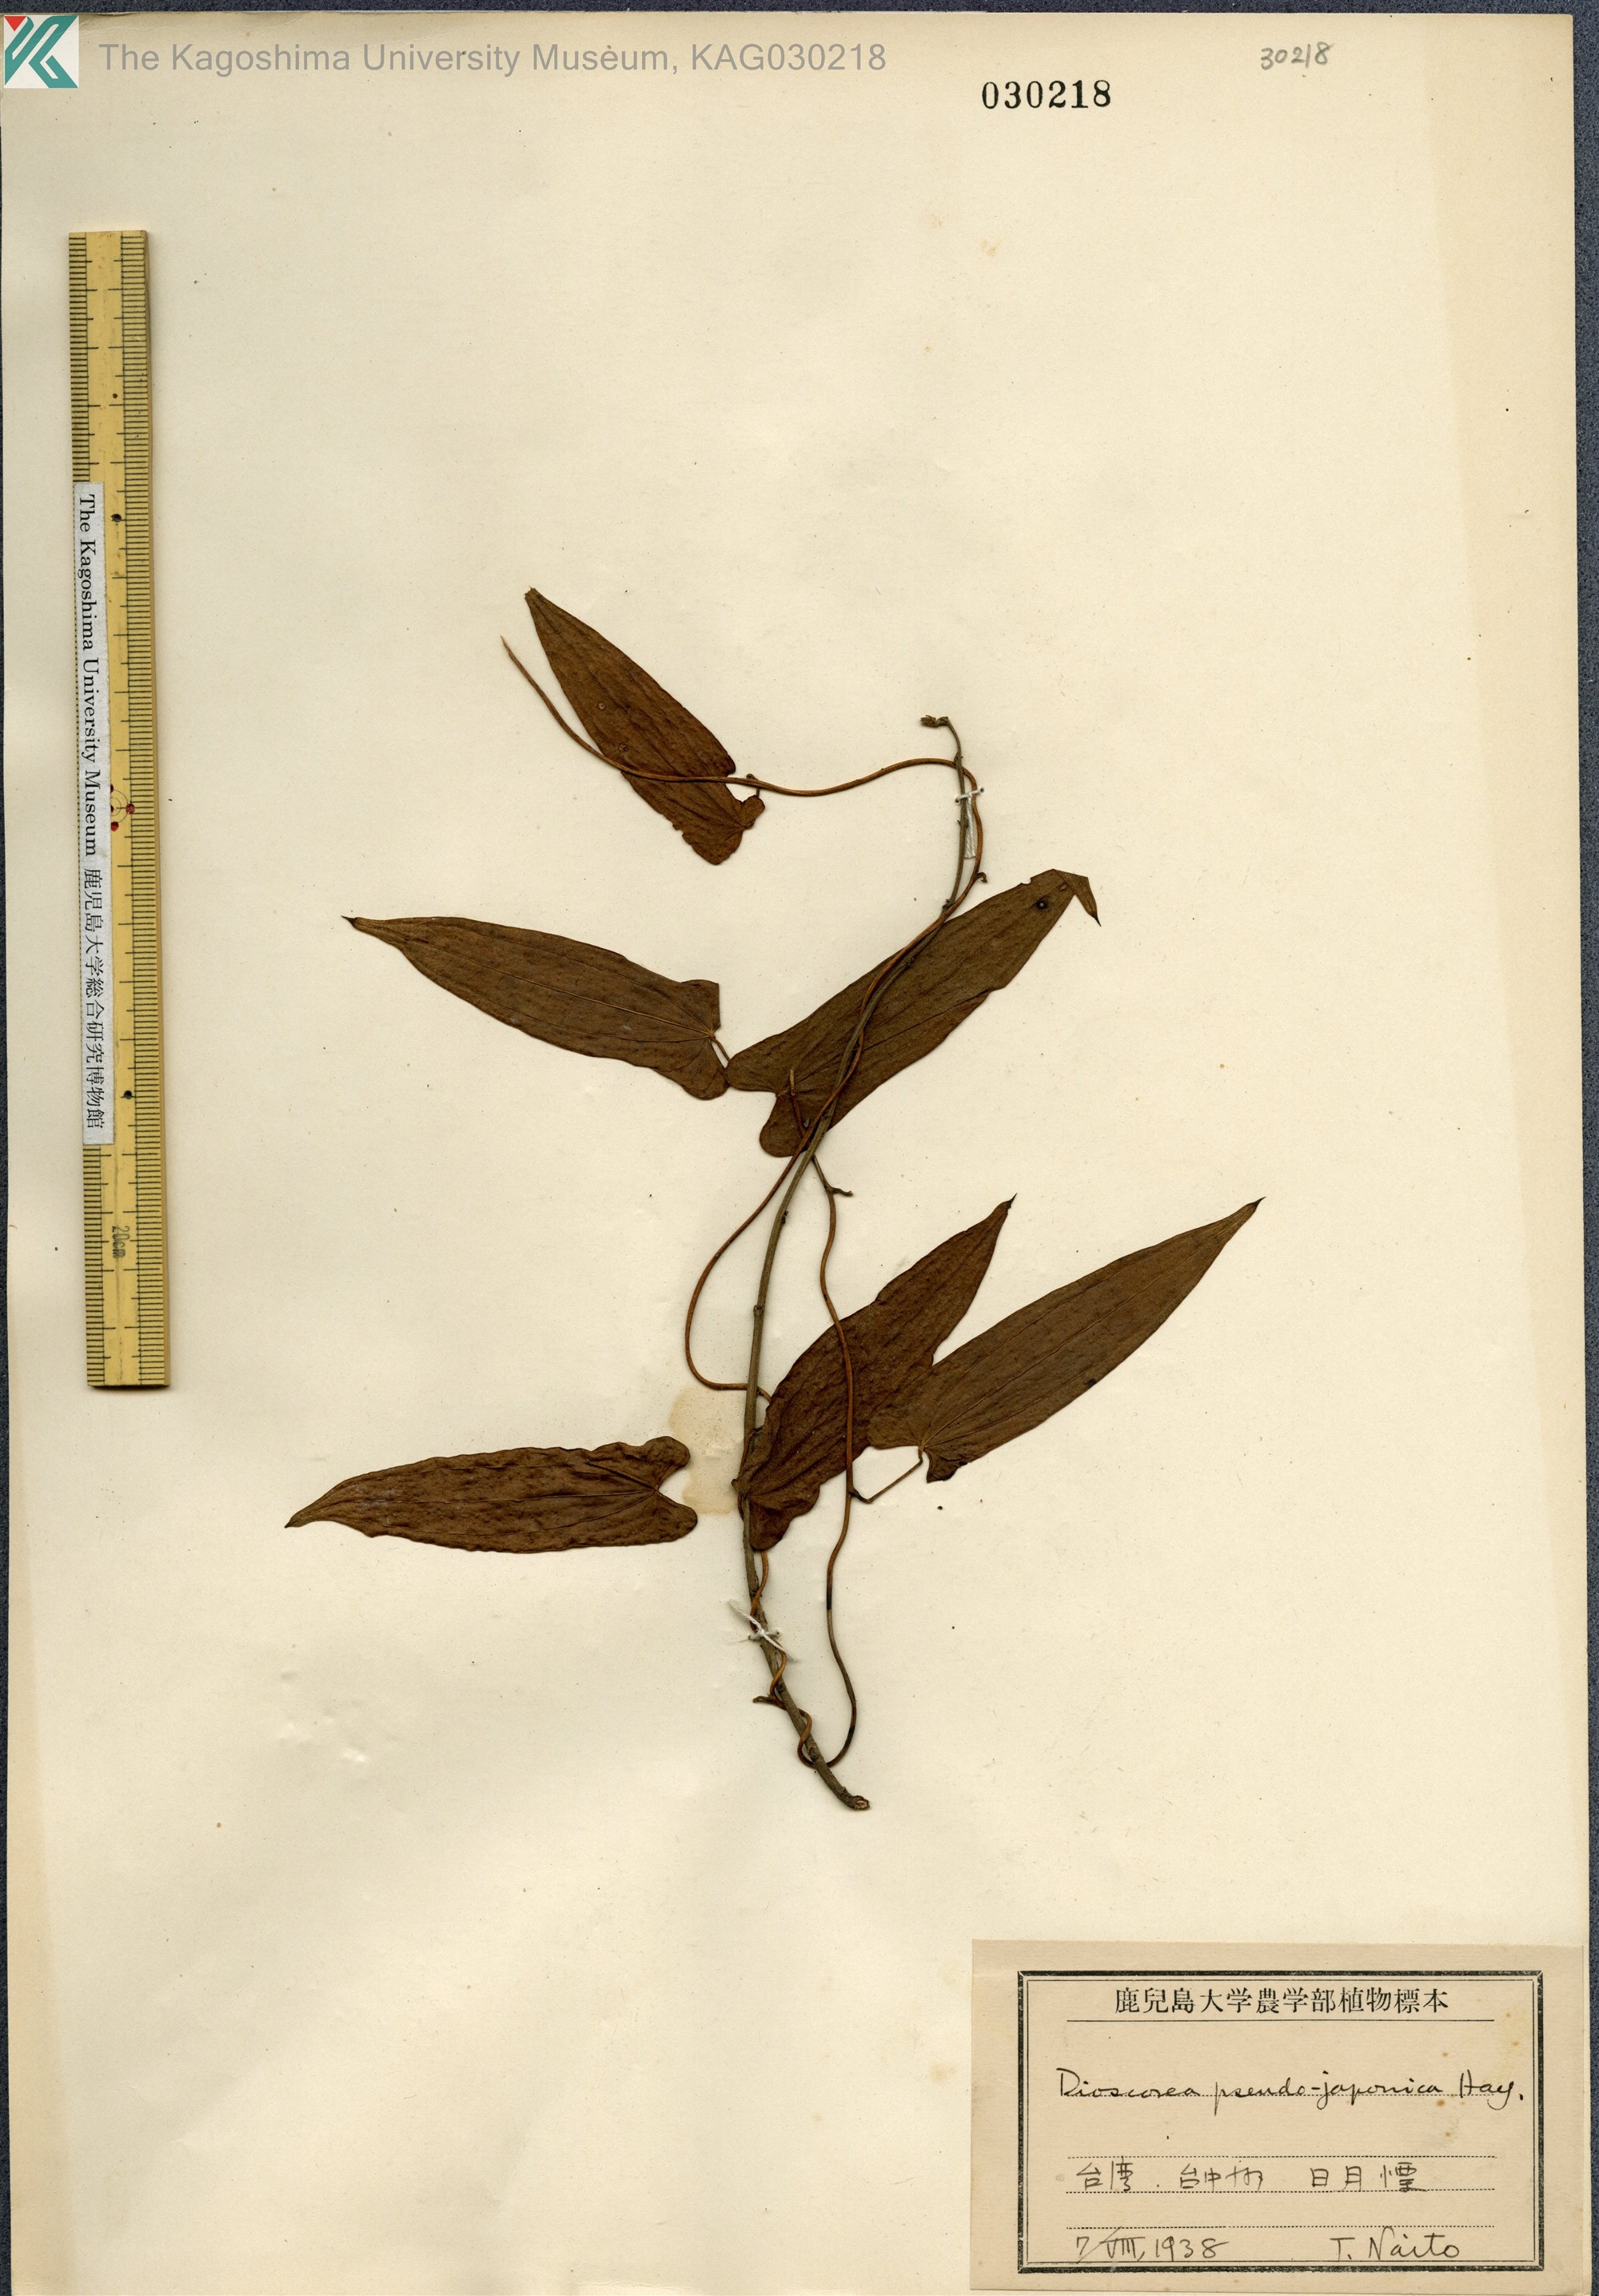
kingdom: Plantae
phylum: Tracheophyta
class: Liliopsida
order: Dioscoreales
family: Dioscoreaceae
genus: Dioscorea
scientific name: Dioscorea pseudojaponica
